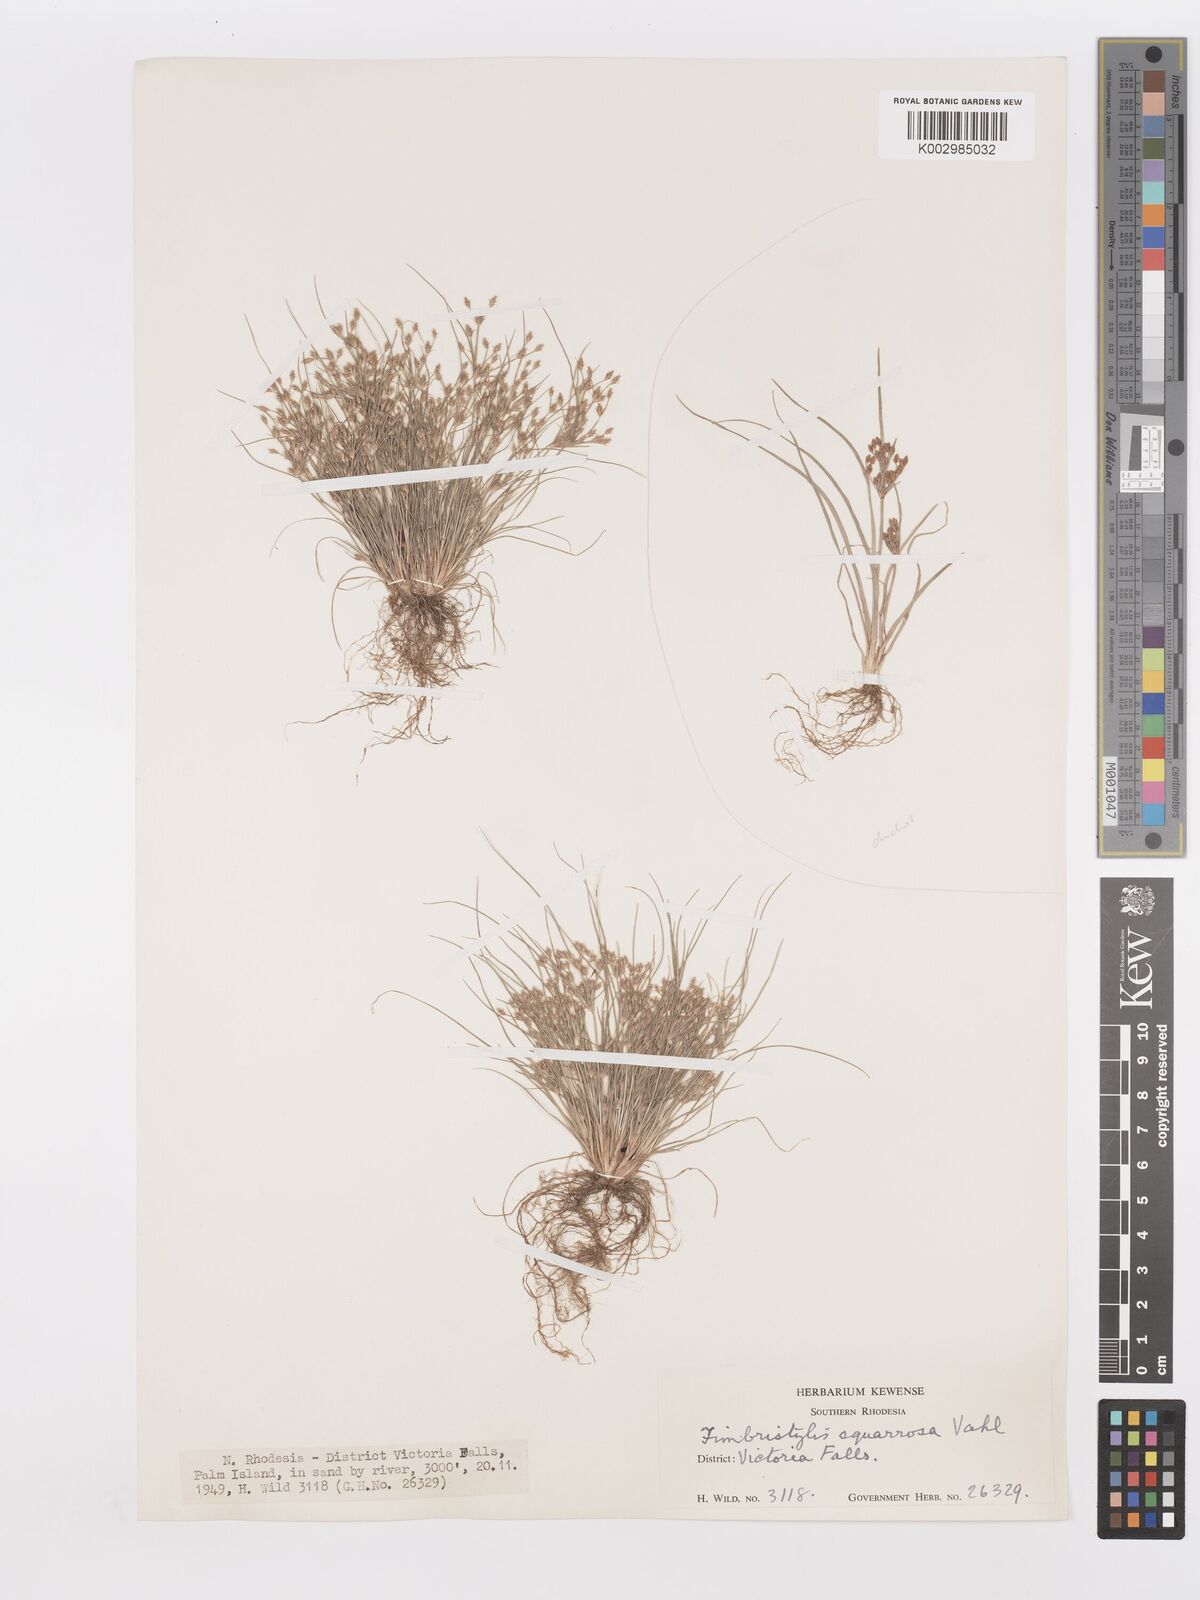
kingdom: Plantae
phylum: Tracheophyta
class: Liliopsida
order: Poales
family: Cyperaceae
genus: Fimbristylis
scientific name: Fimbristylis squarrosa
